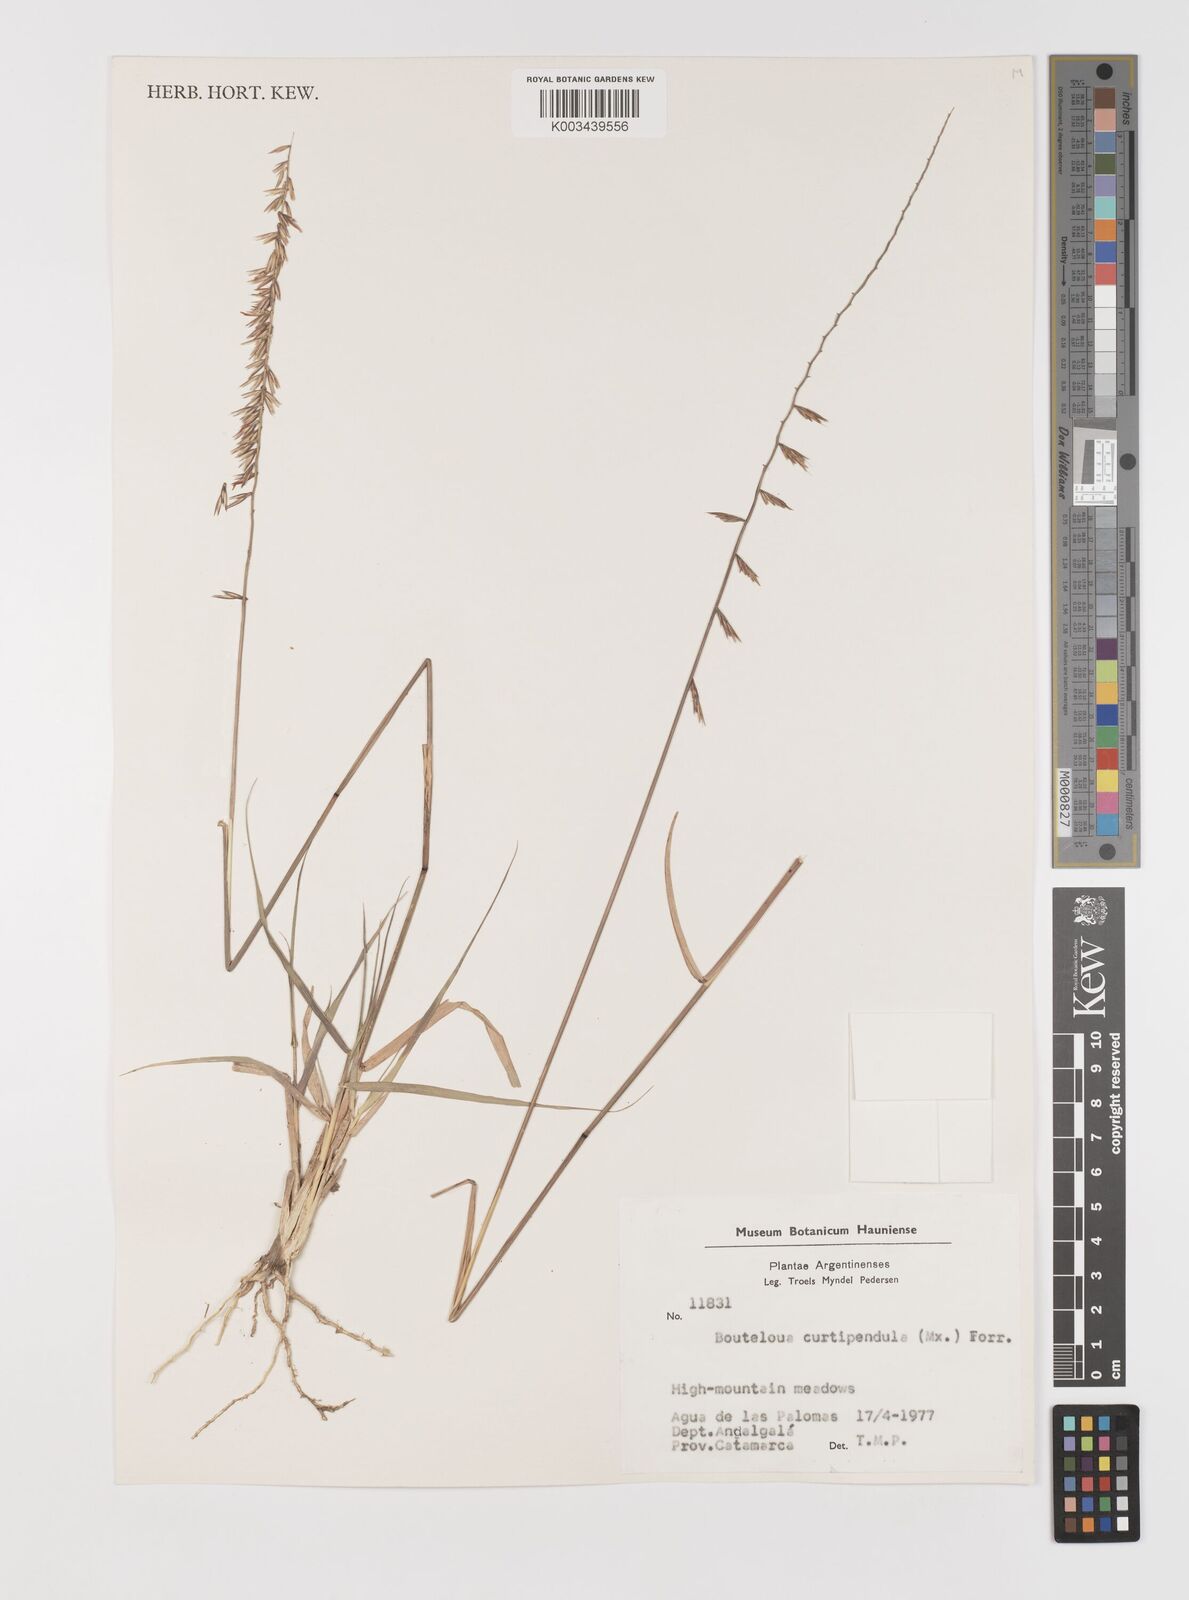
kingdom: Plantae
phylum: Tracheophyta
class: Liliopsida
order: Poales
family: Poaceae
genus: Bouteloua
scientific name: Bouteloua curtipendula
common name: Side-oats grama
